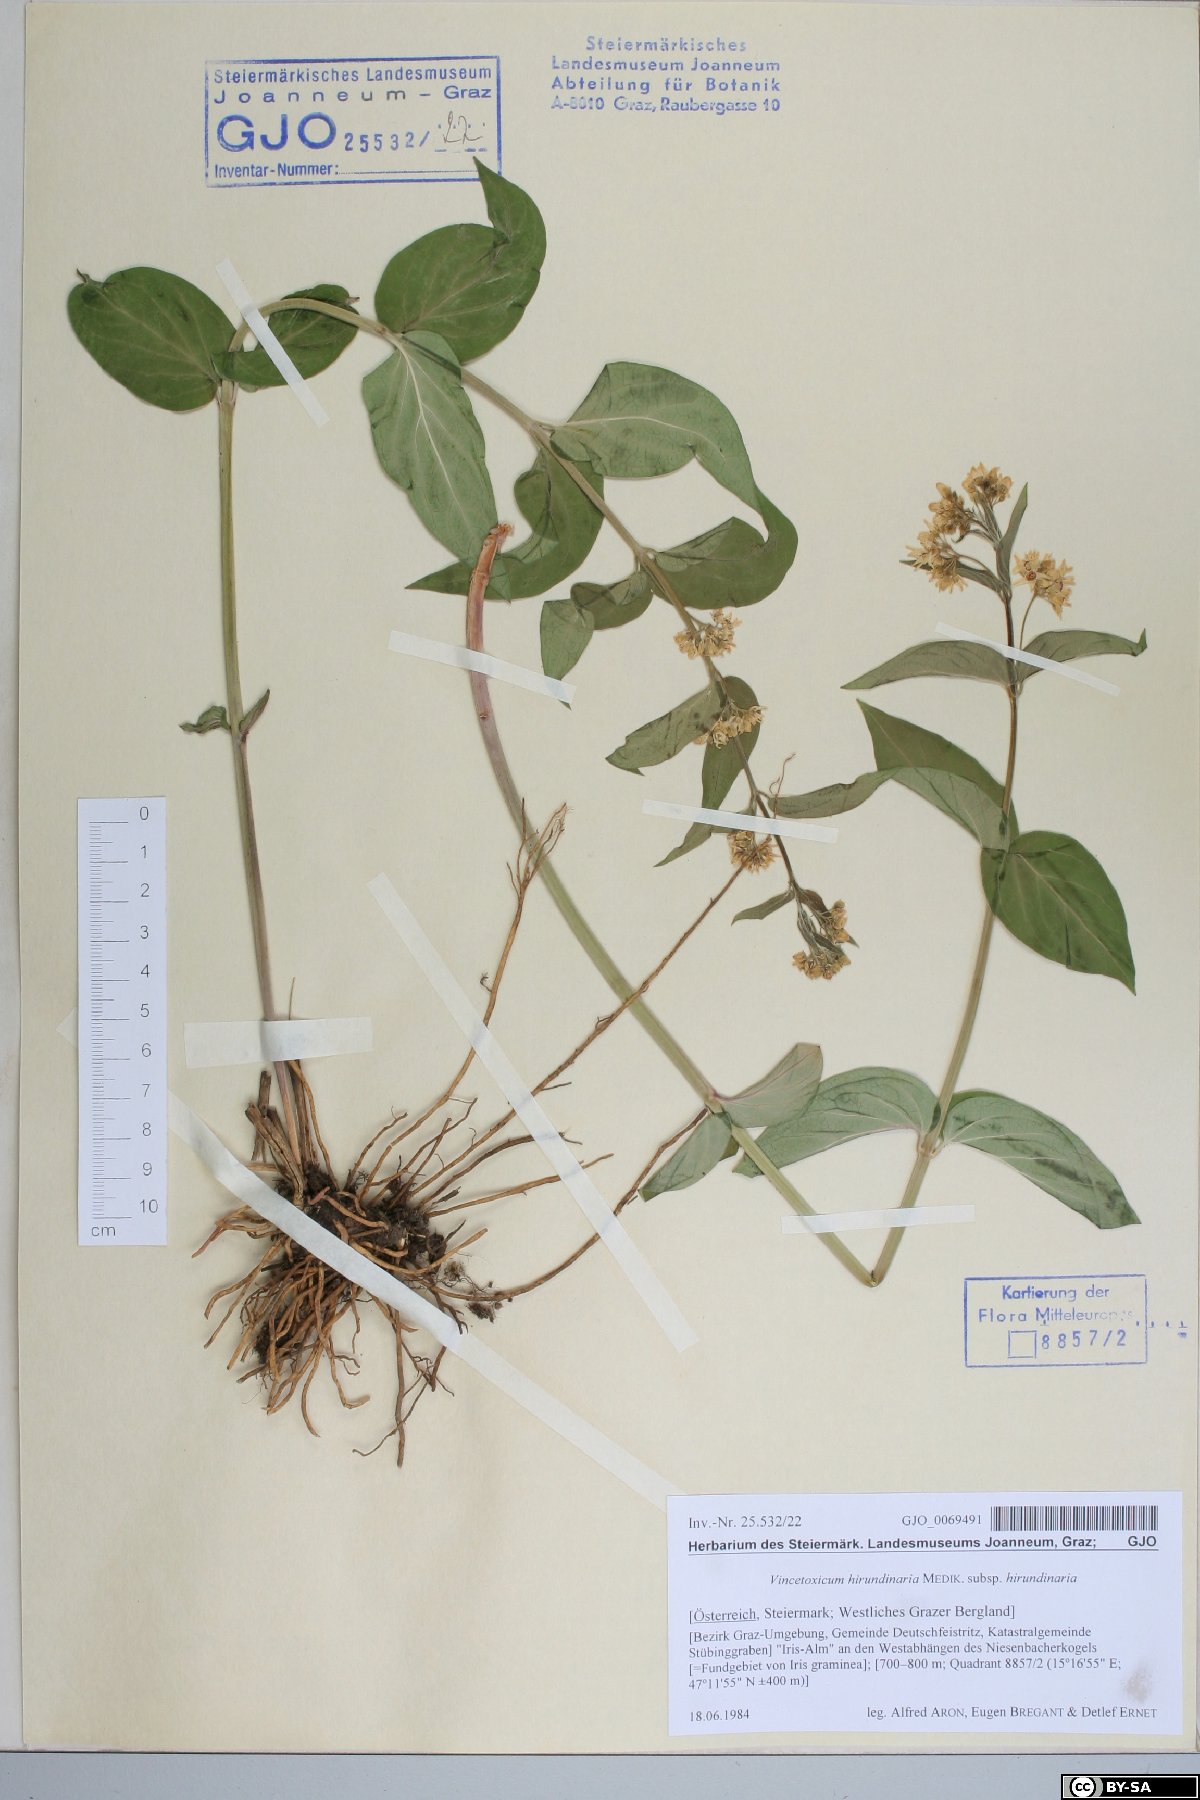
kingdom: Plantae
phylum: Tracheophyta
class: Magnoliopsida
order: Gentianales
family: Apocynaceae
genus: Vincetoxicum
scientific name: Vincetoxicum hirundinaria
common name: White swallowwort
